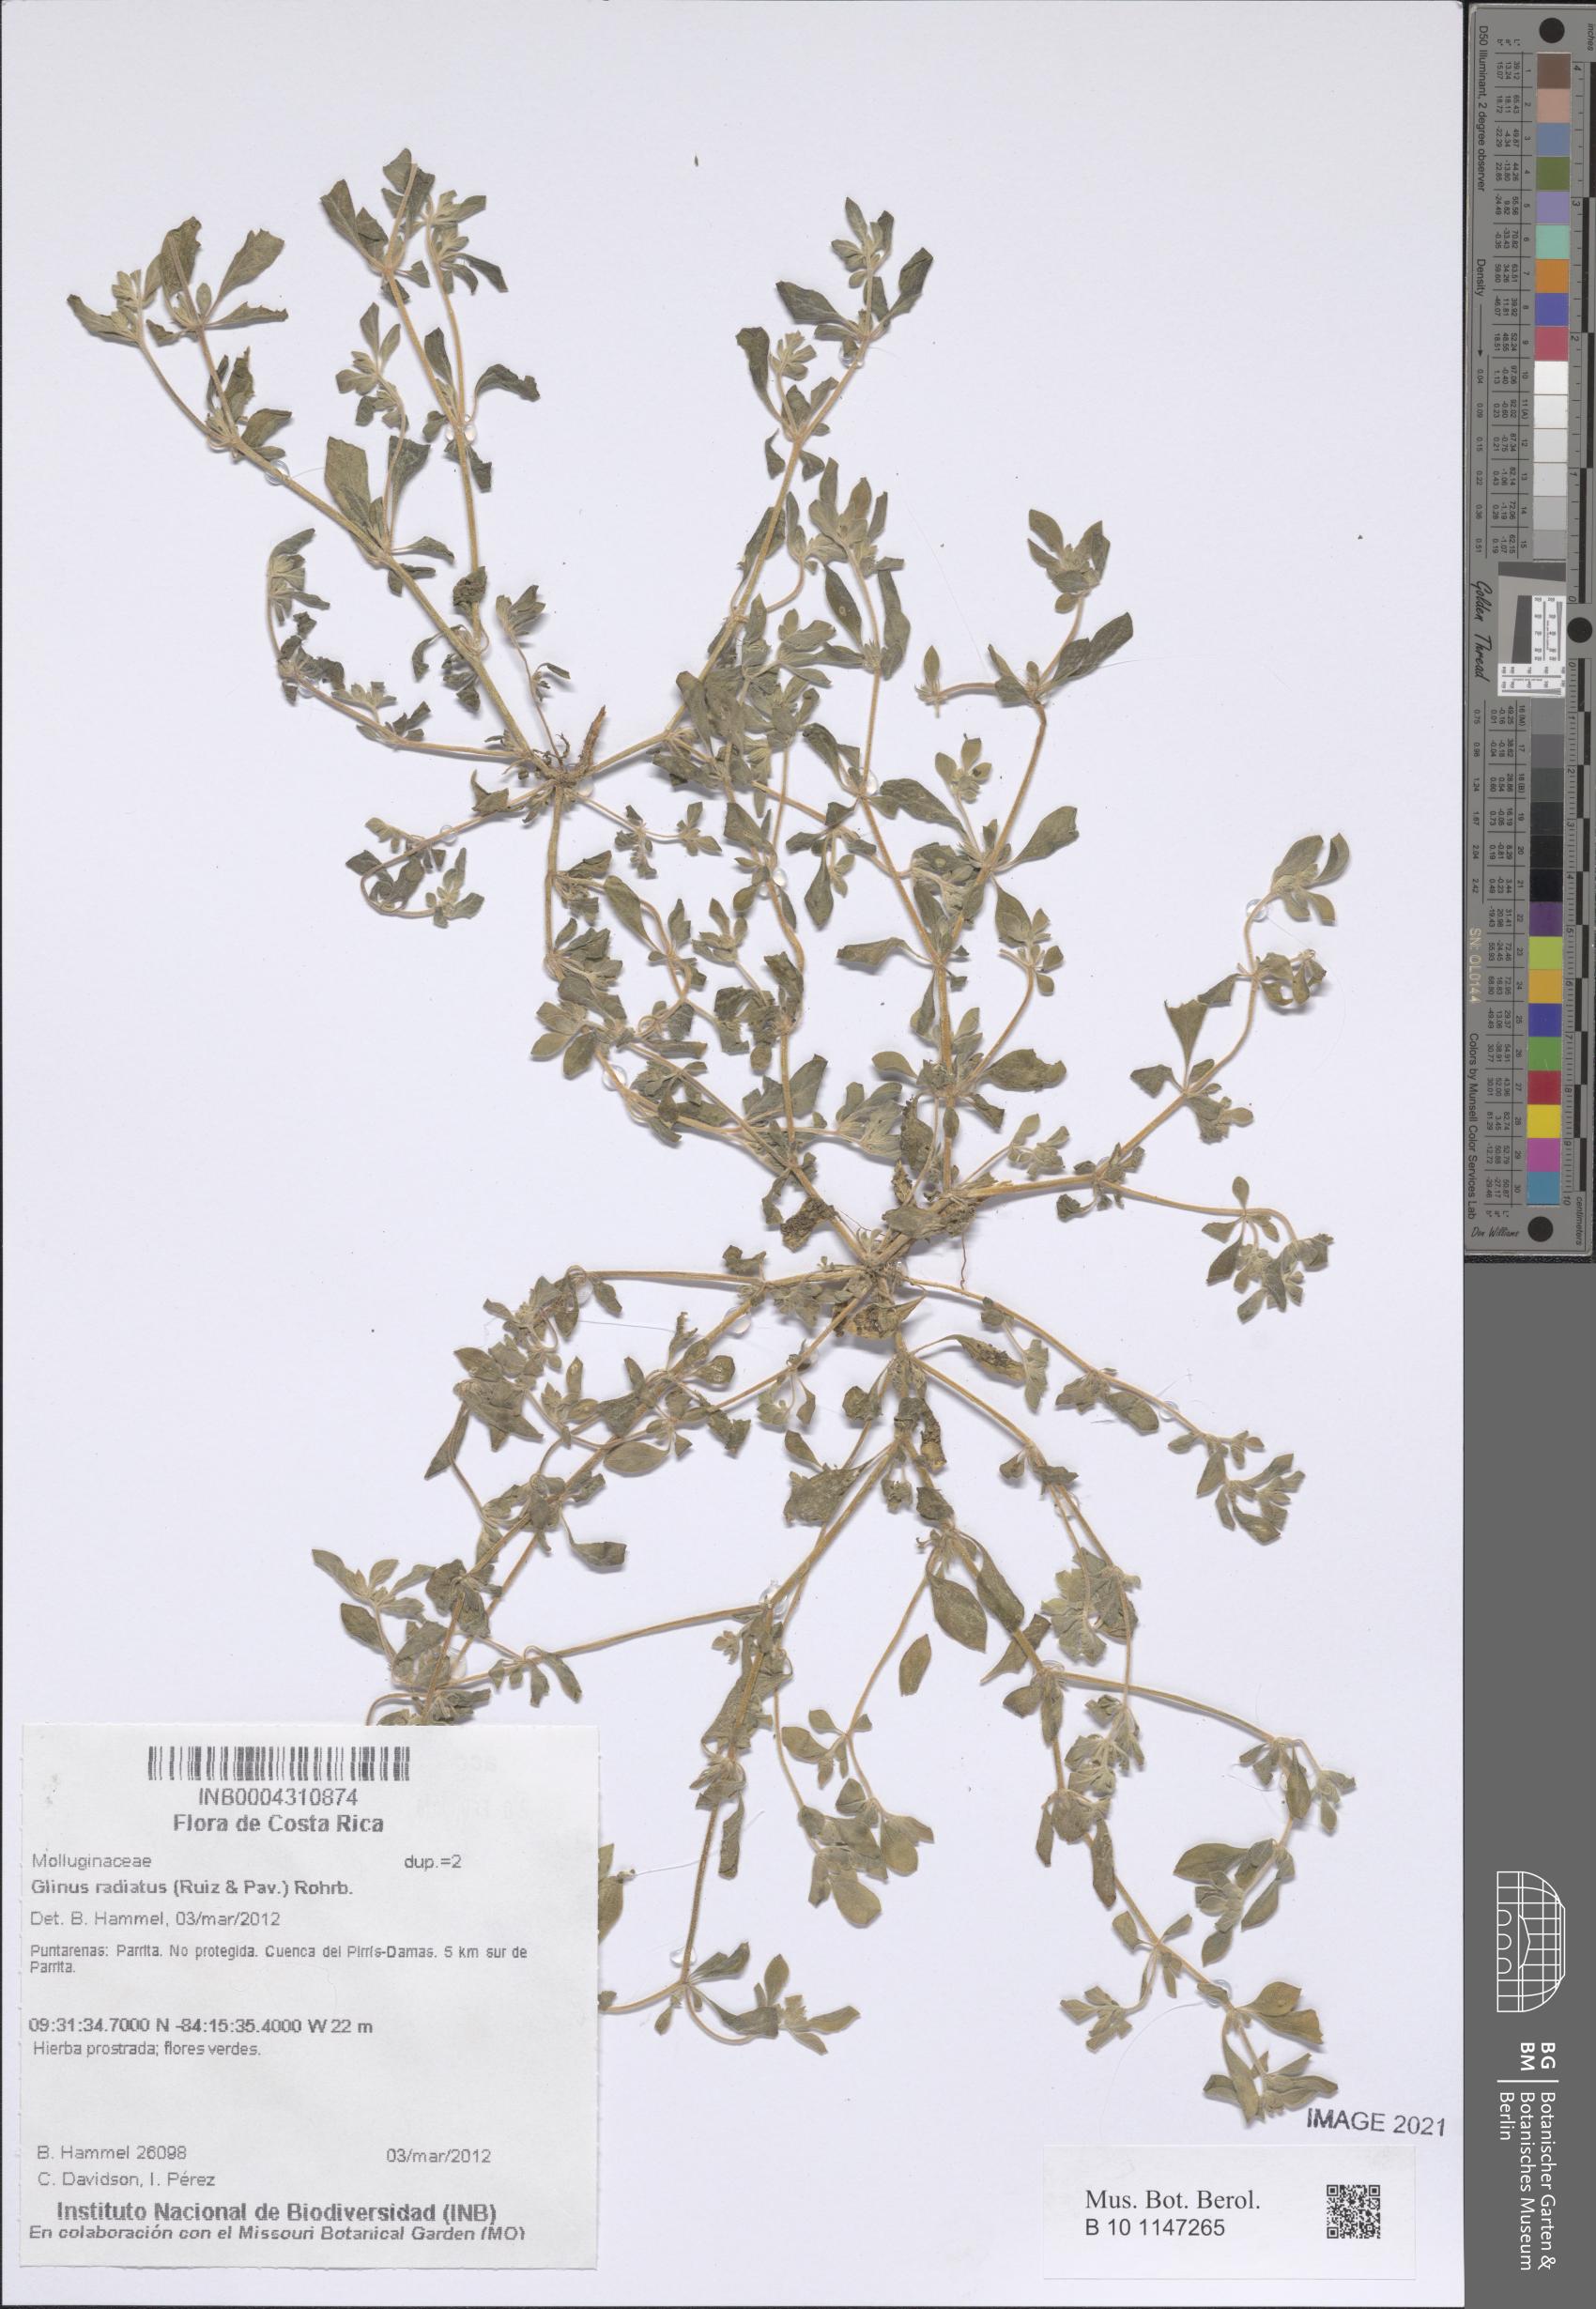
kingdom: Plantae
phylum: Tracheophyta
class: Magnoliopsida
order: Caryophyllales
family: Molluginaceae
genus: Glinus
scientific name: Glinus radiatus
